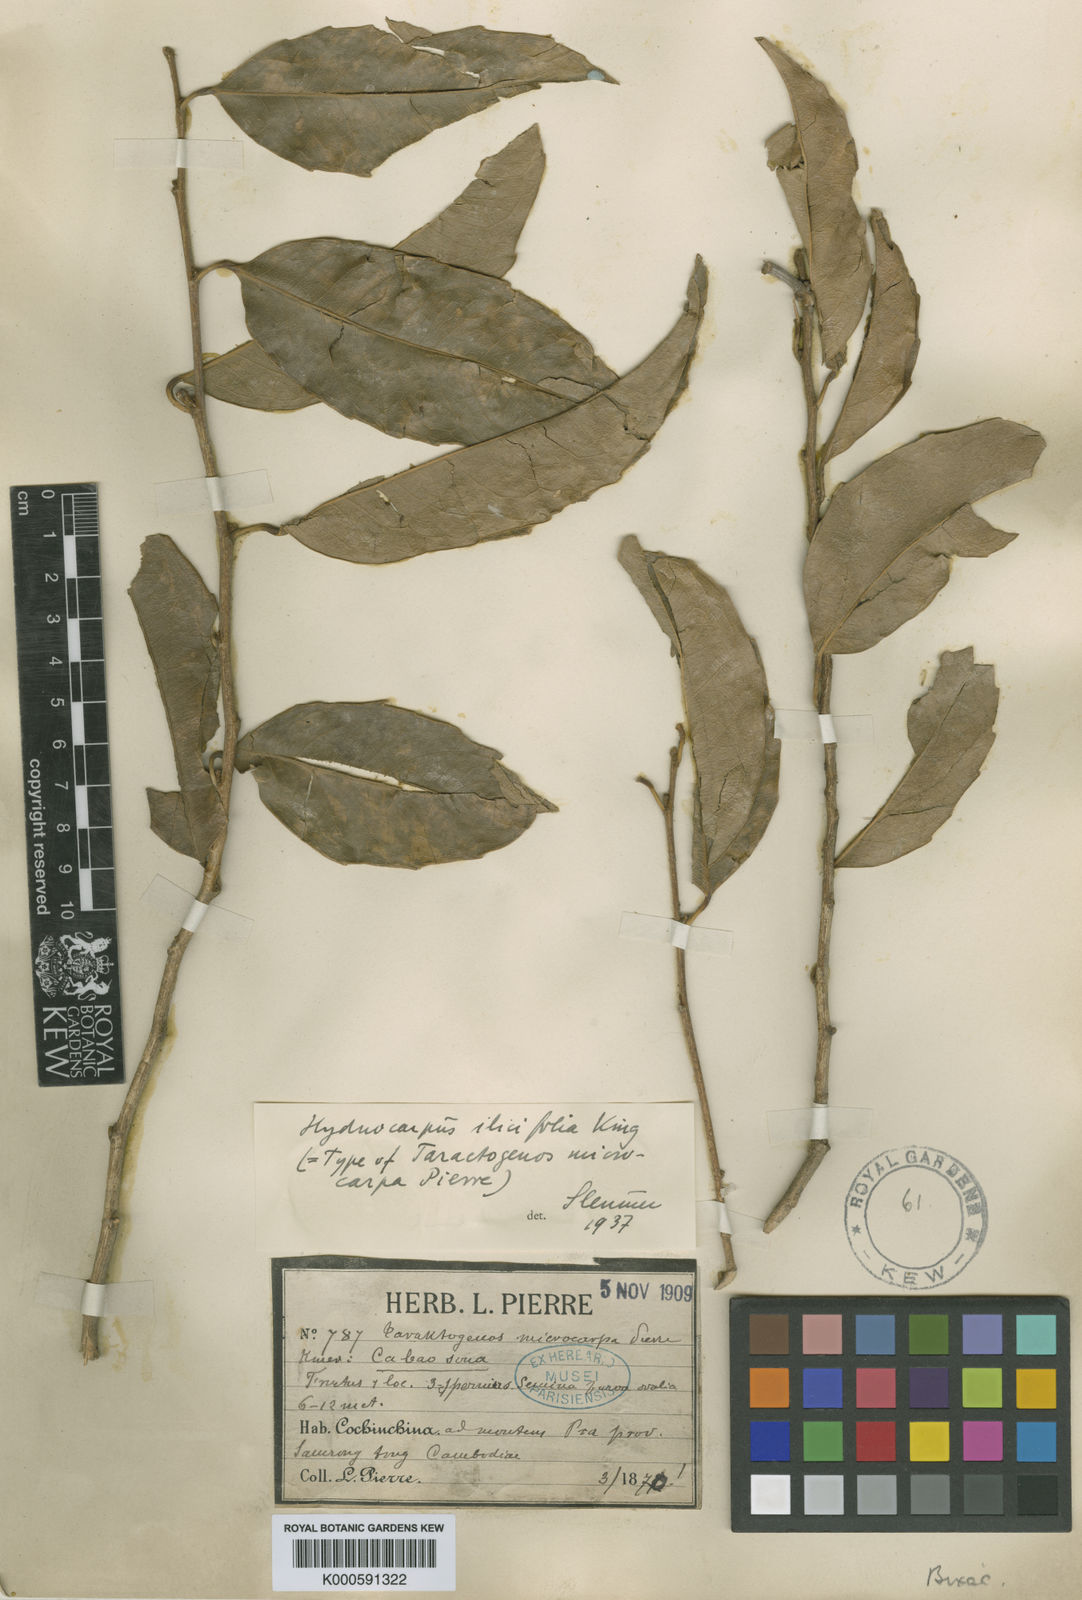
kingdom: Plantae
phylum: Tracheophyta
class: Magnoliopsida
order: Malpighiales
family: Achariaceae
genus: Hydnocarpus
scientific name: Hydnocarpus ilicifolius
